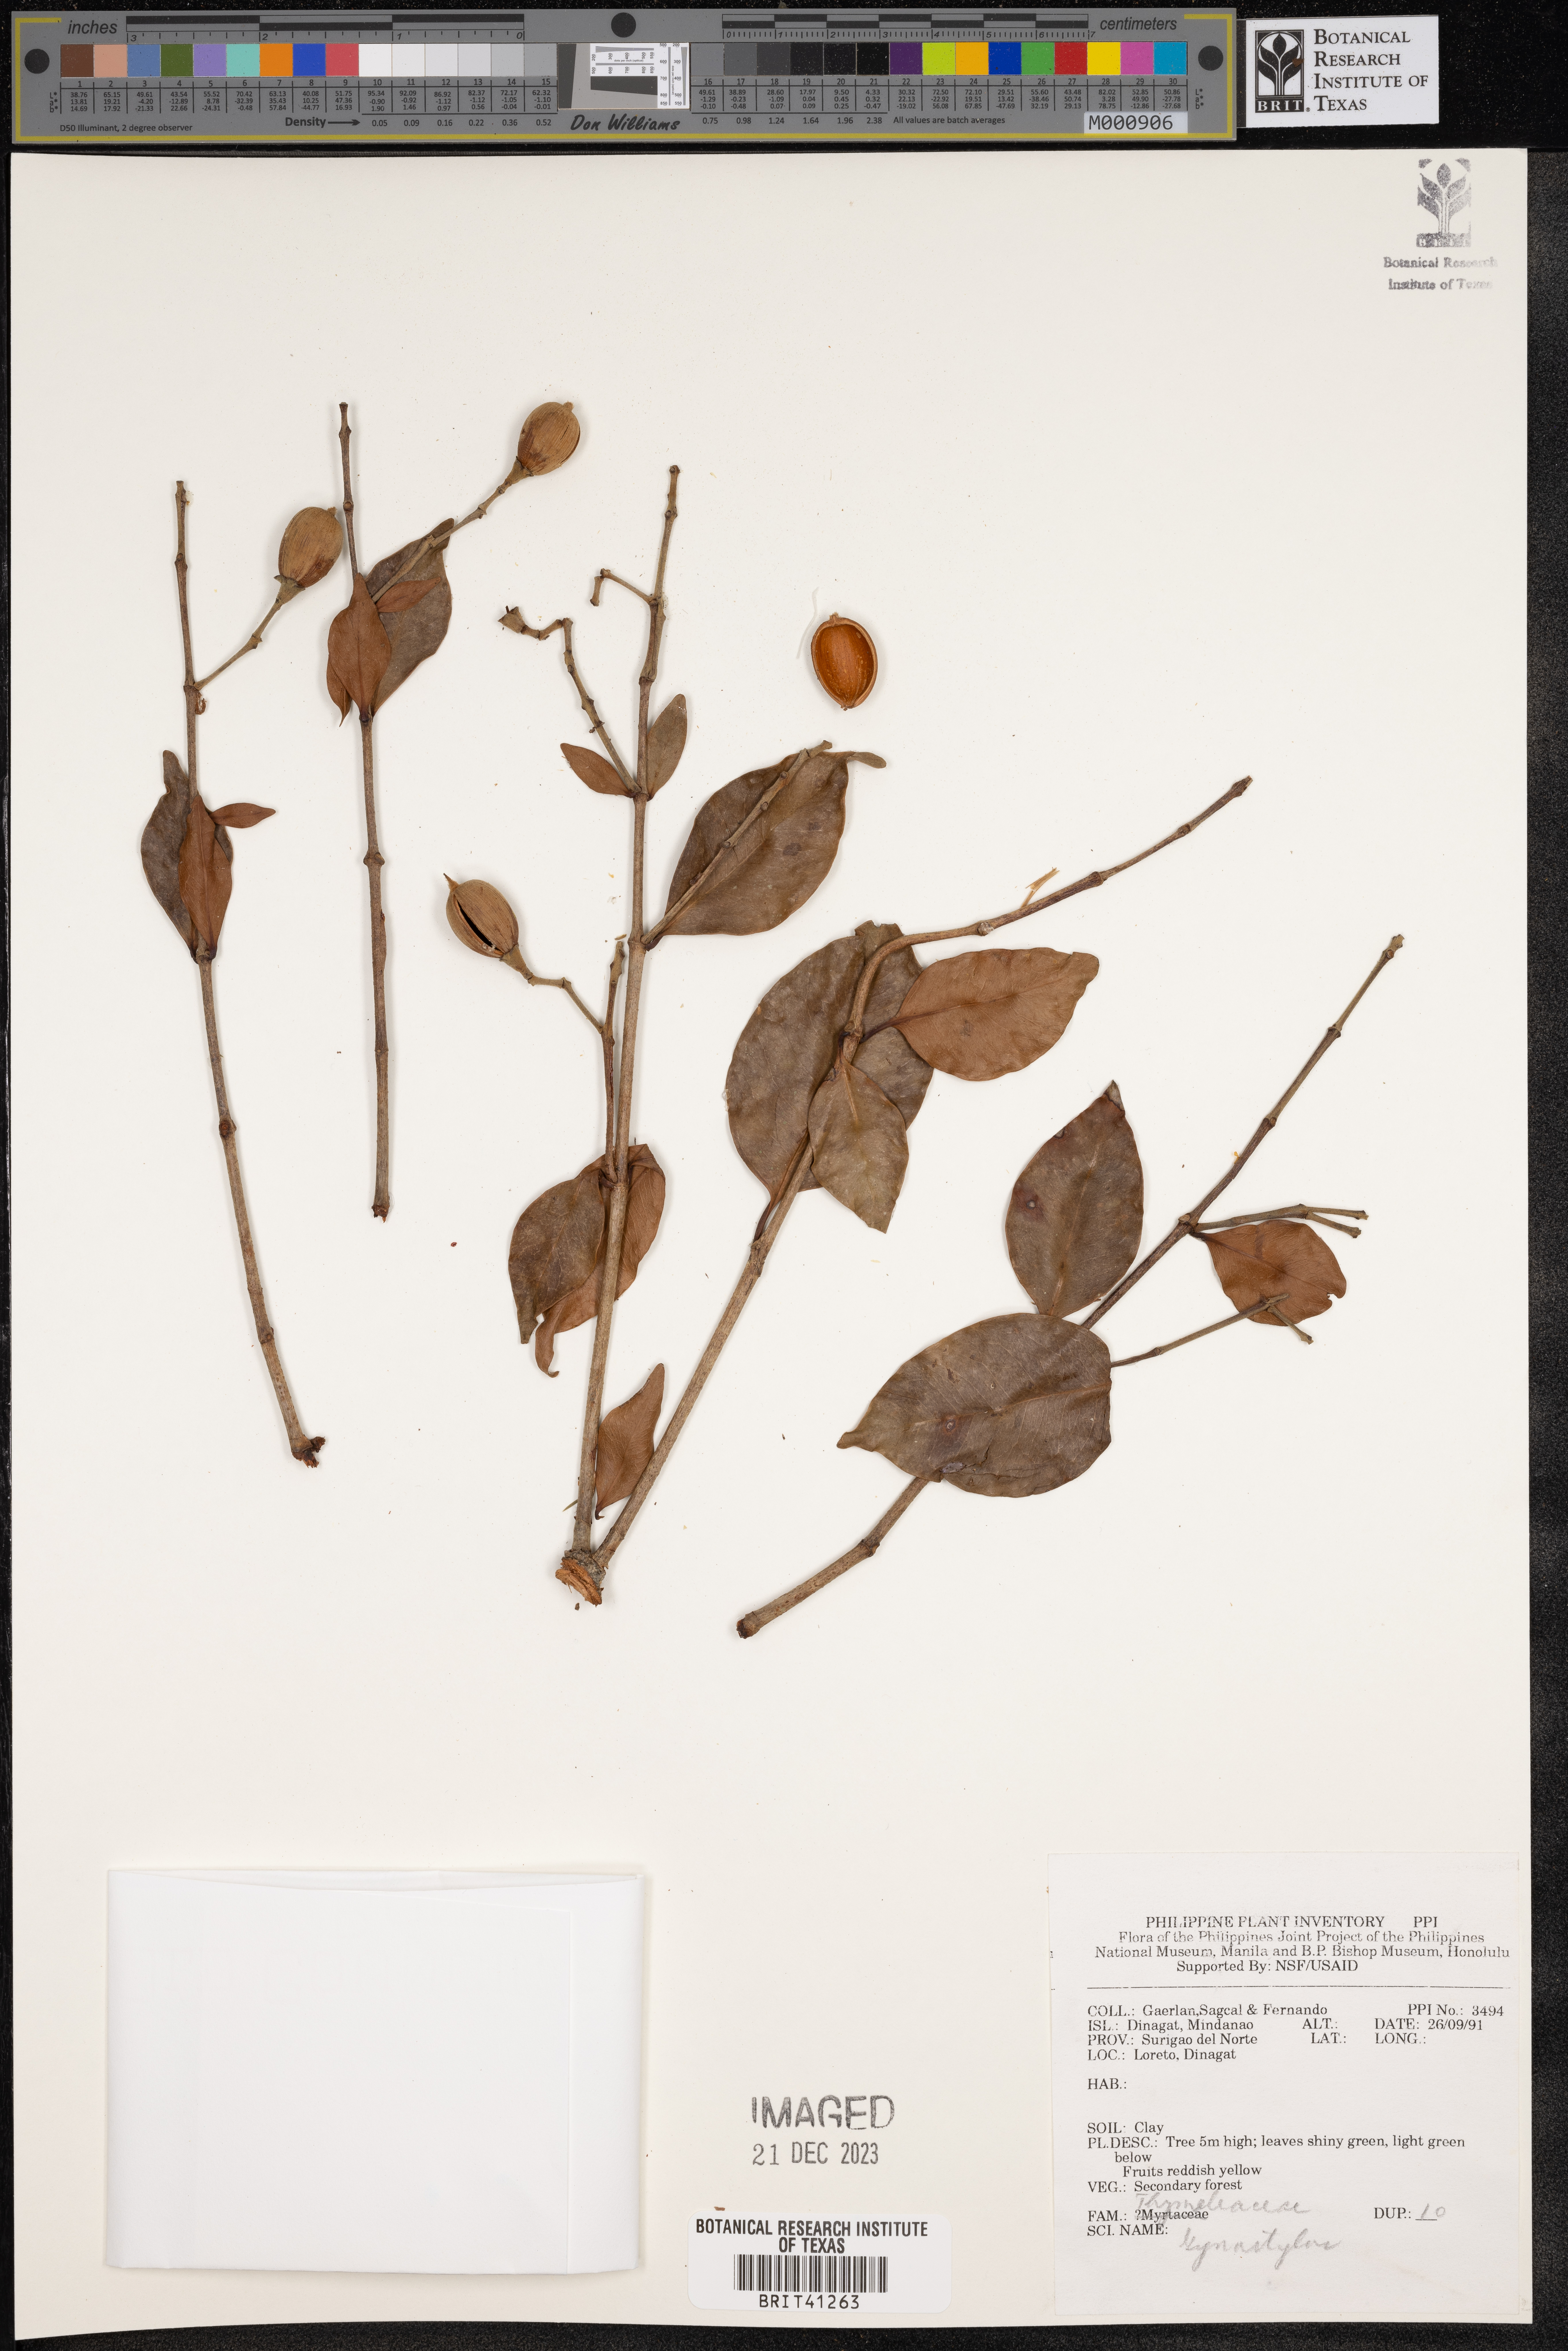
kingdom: Plantae
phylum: Tracheophyta
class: Magnoliopsida
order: Malvales
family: Thymelaeaceae
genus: Gonystylus
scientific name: Gonystylus
